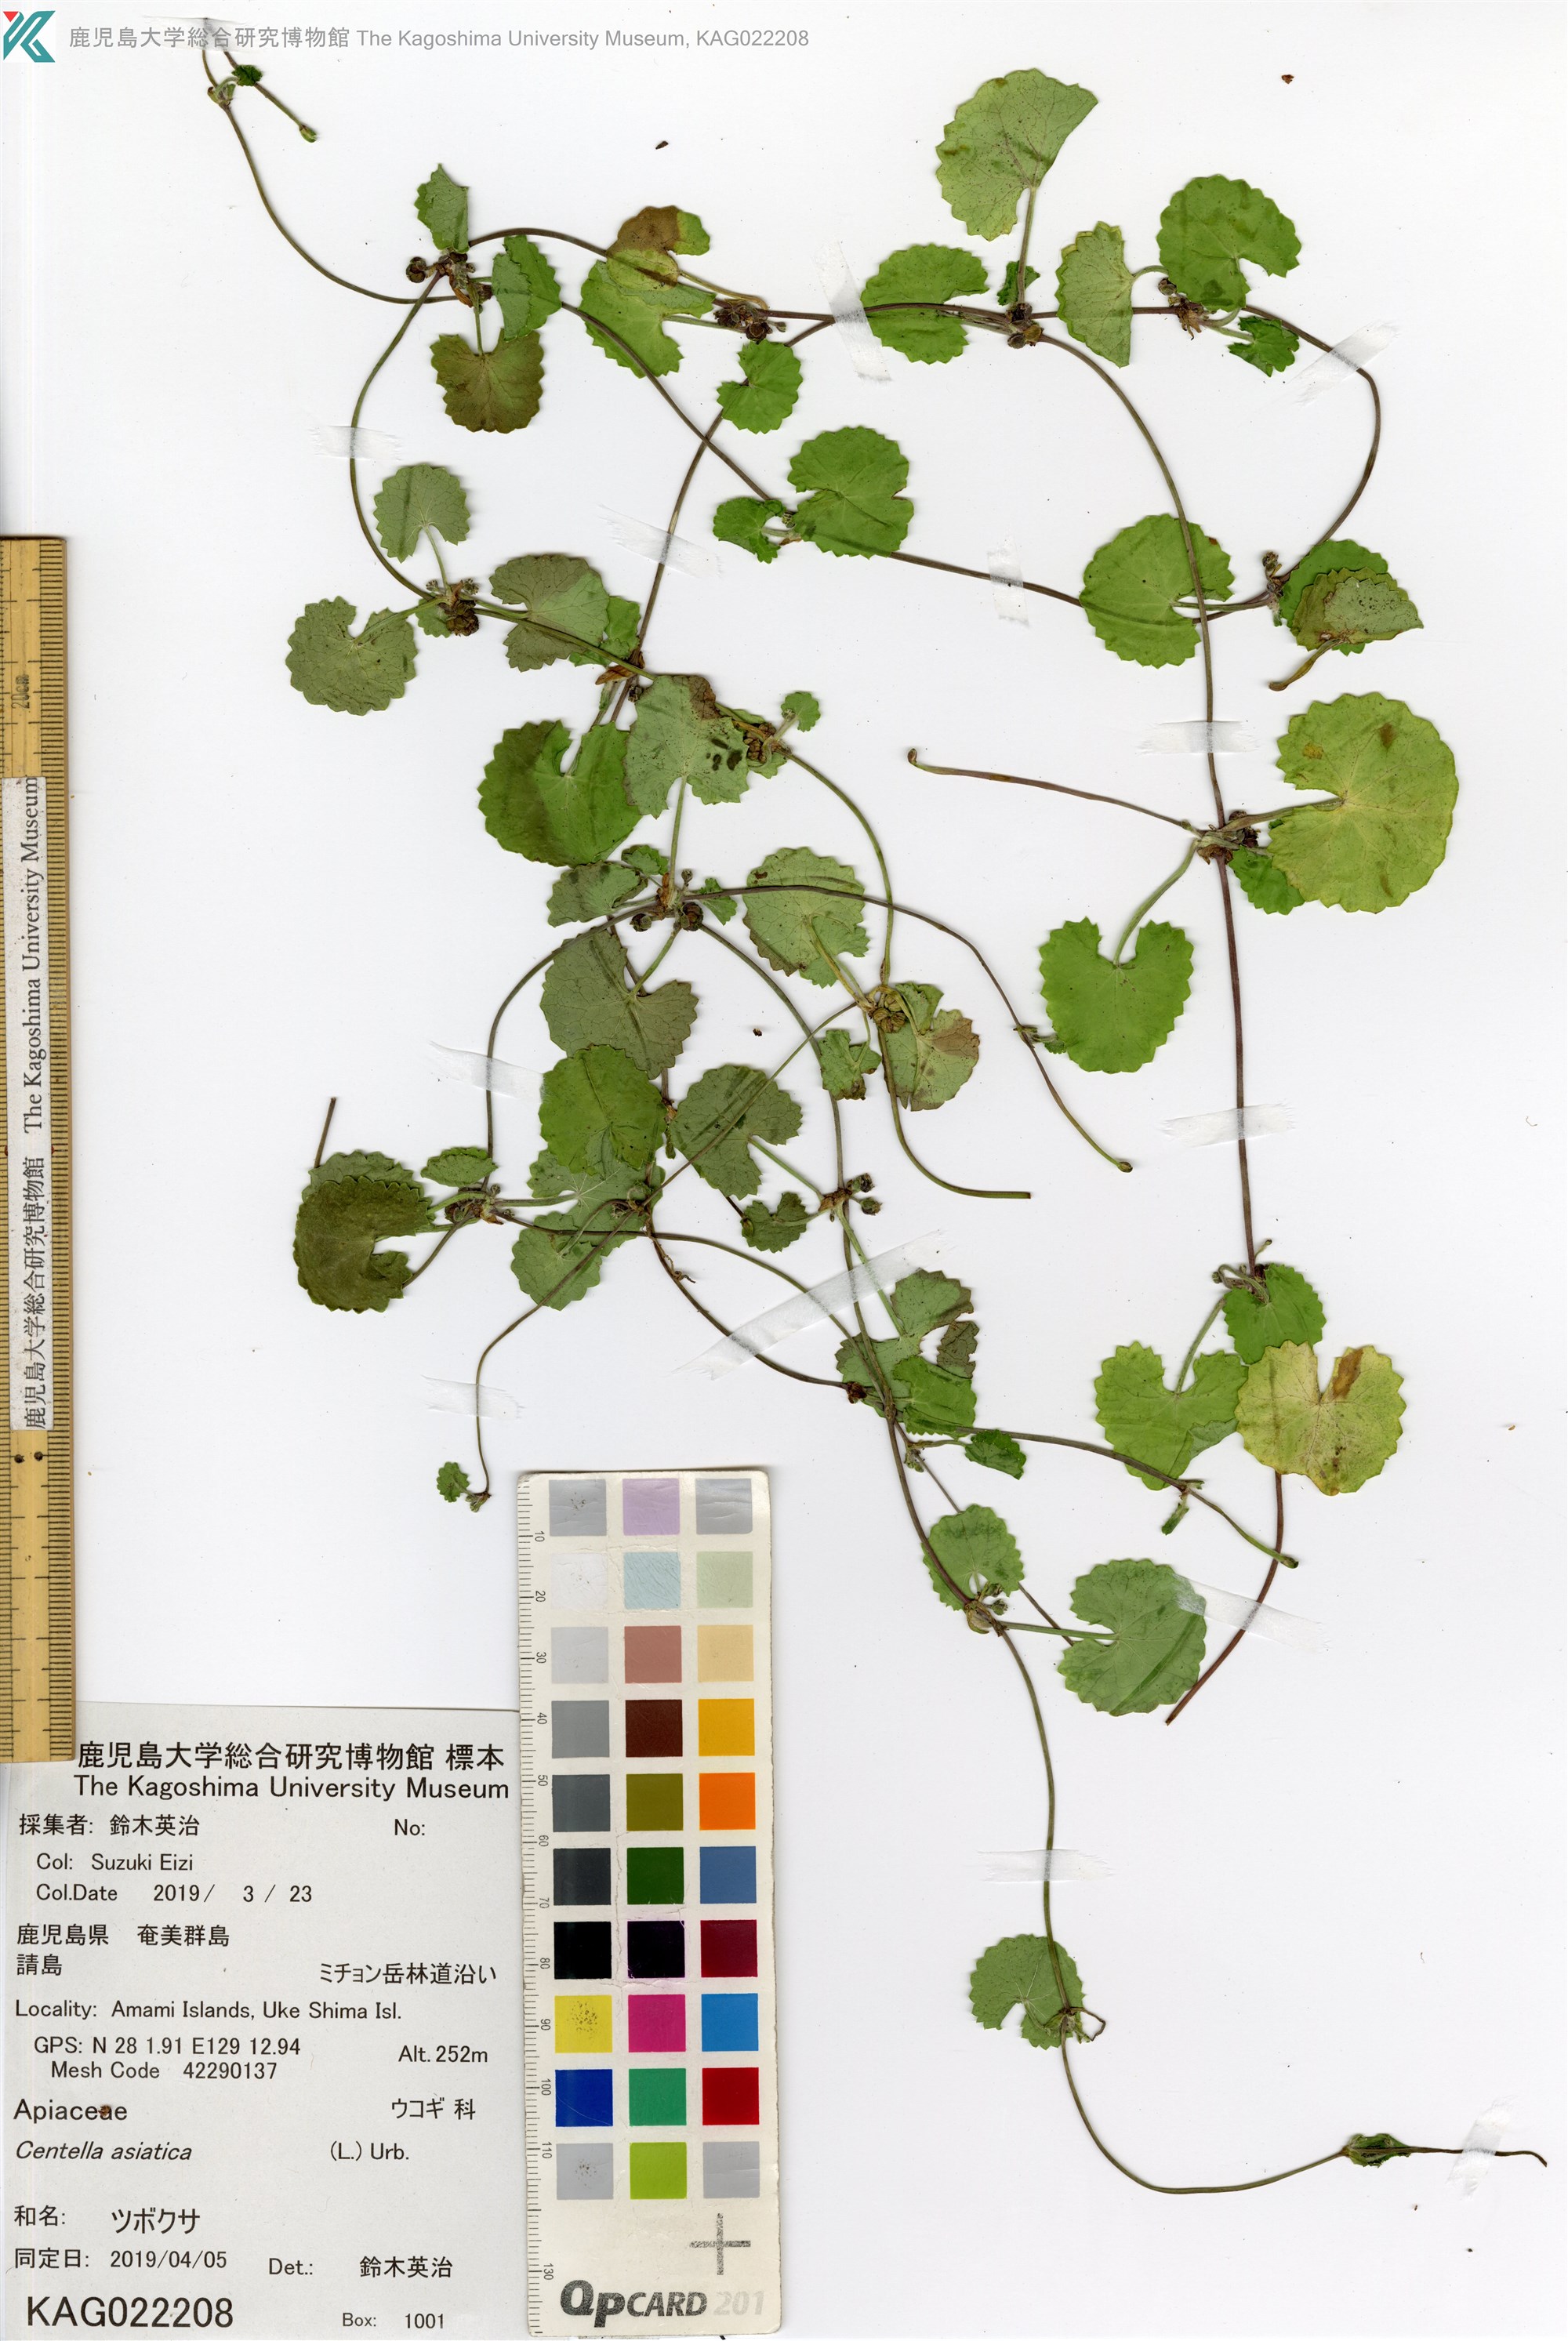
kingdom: Plantae
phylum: Tracheophyta
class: Magnoliopsida
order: Apiales
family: Apiaceae
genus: Centella
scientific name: Centella asiatica
